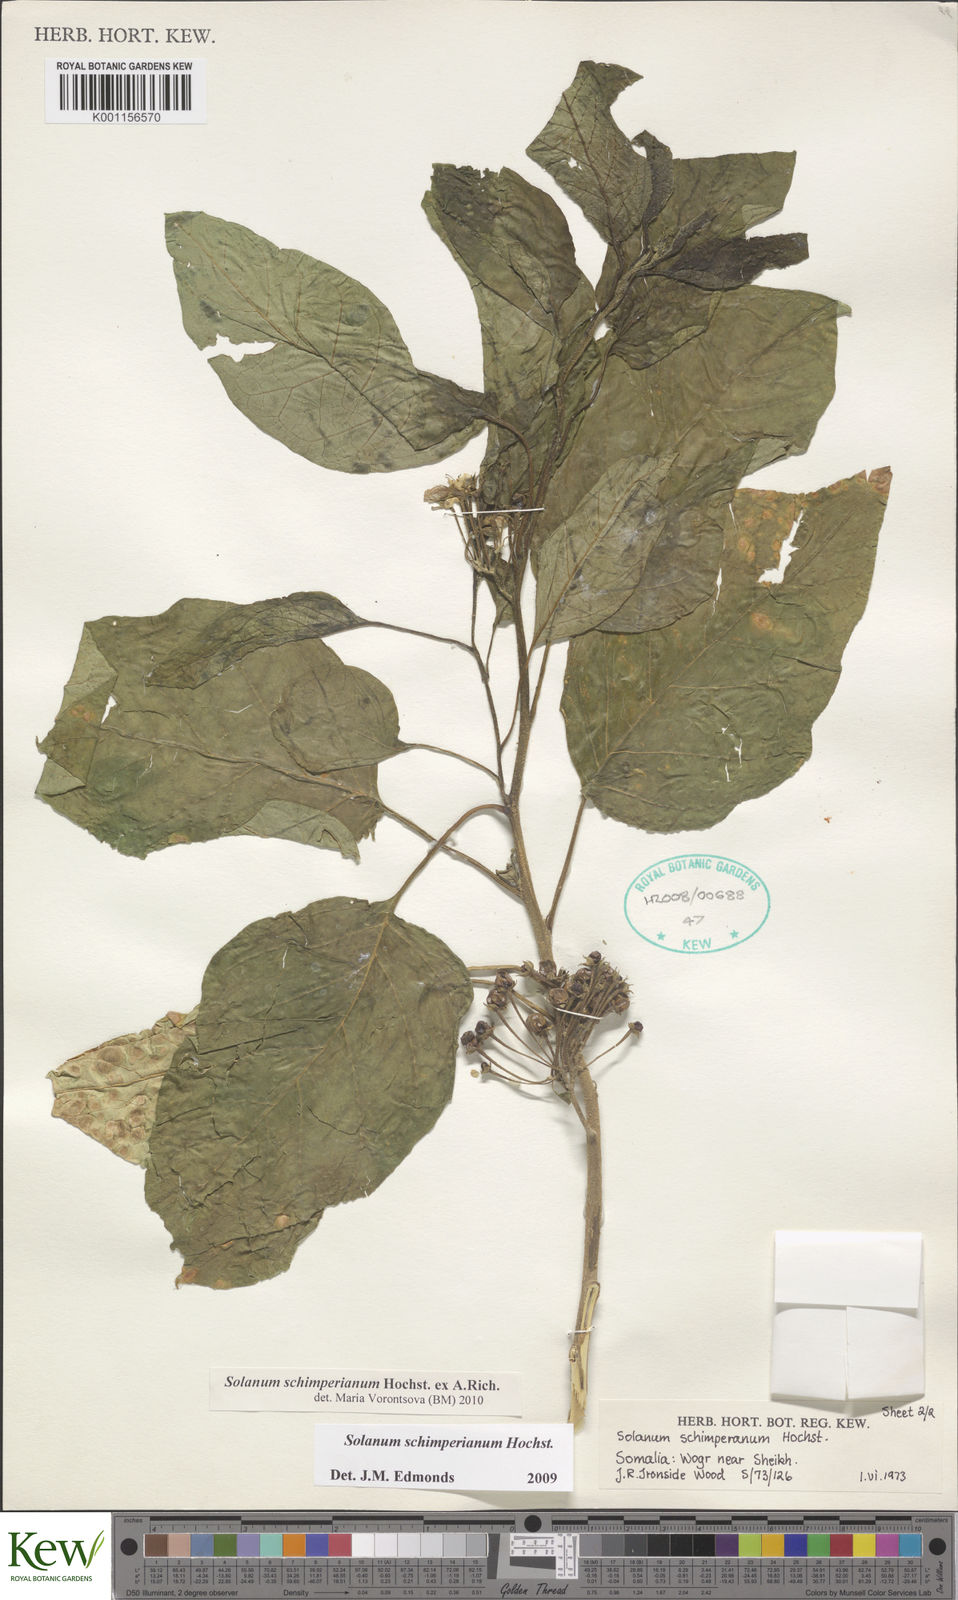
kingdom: Plantae
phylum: Tracheophyta
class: Magnoliopsida
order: Solanales
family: Solanaceae
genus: Solanum
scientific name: Solanum
